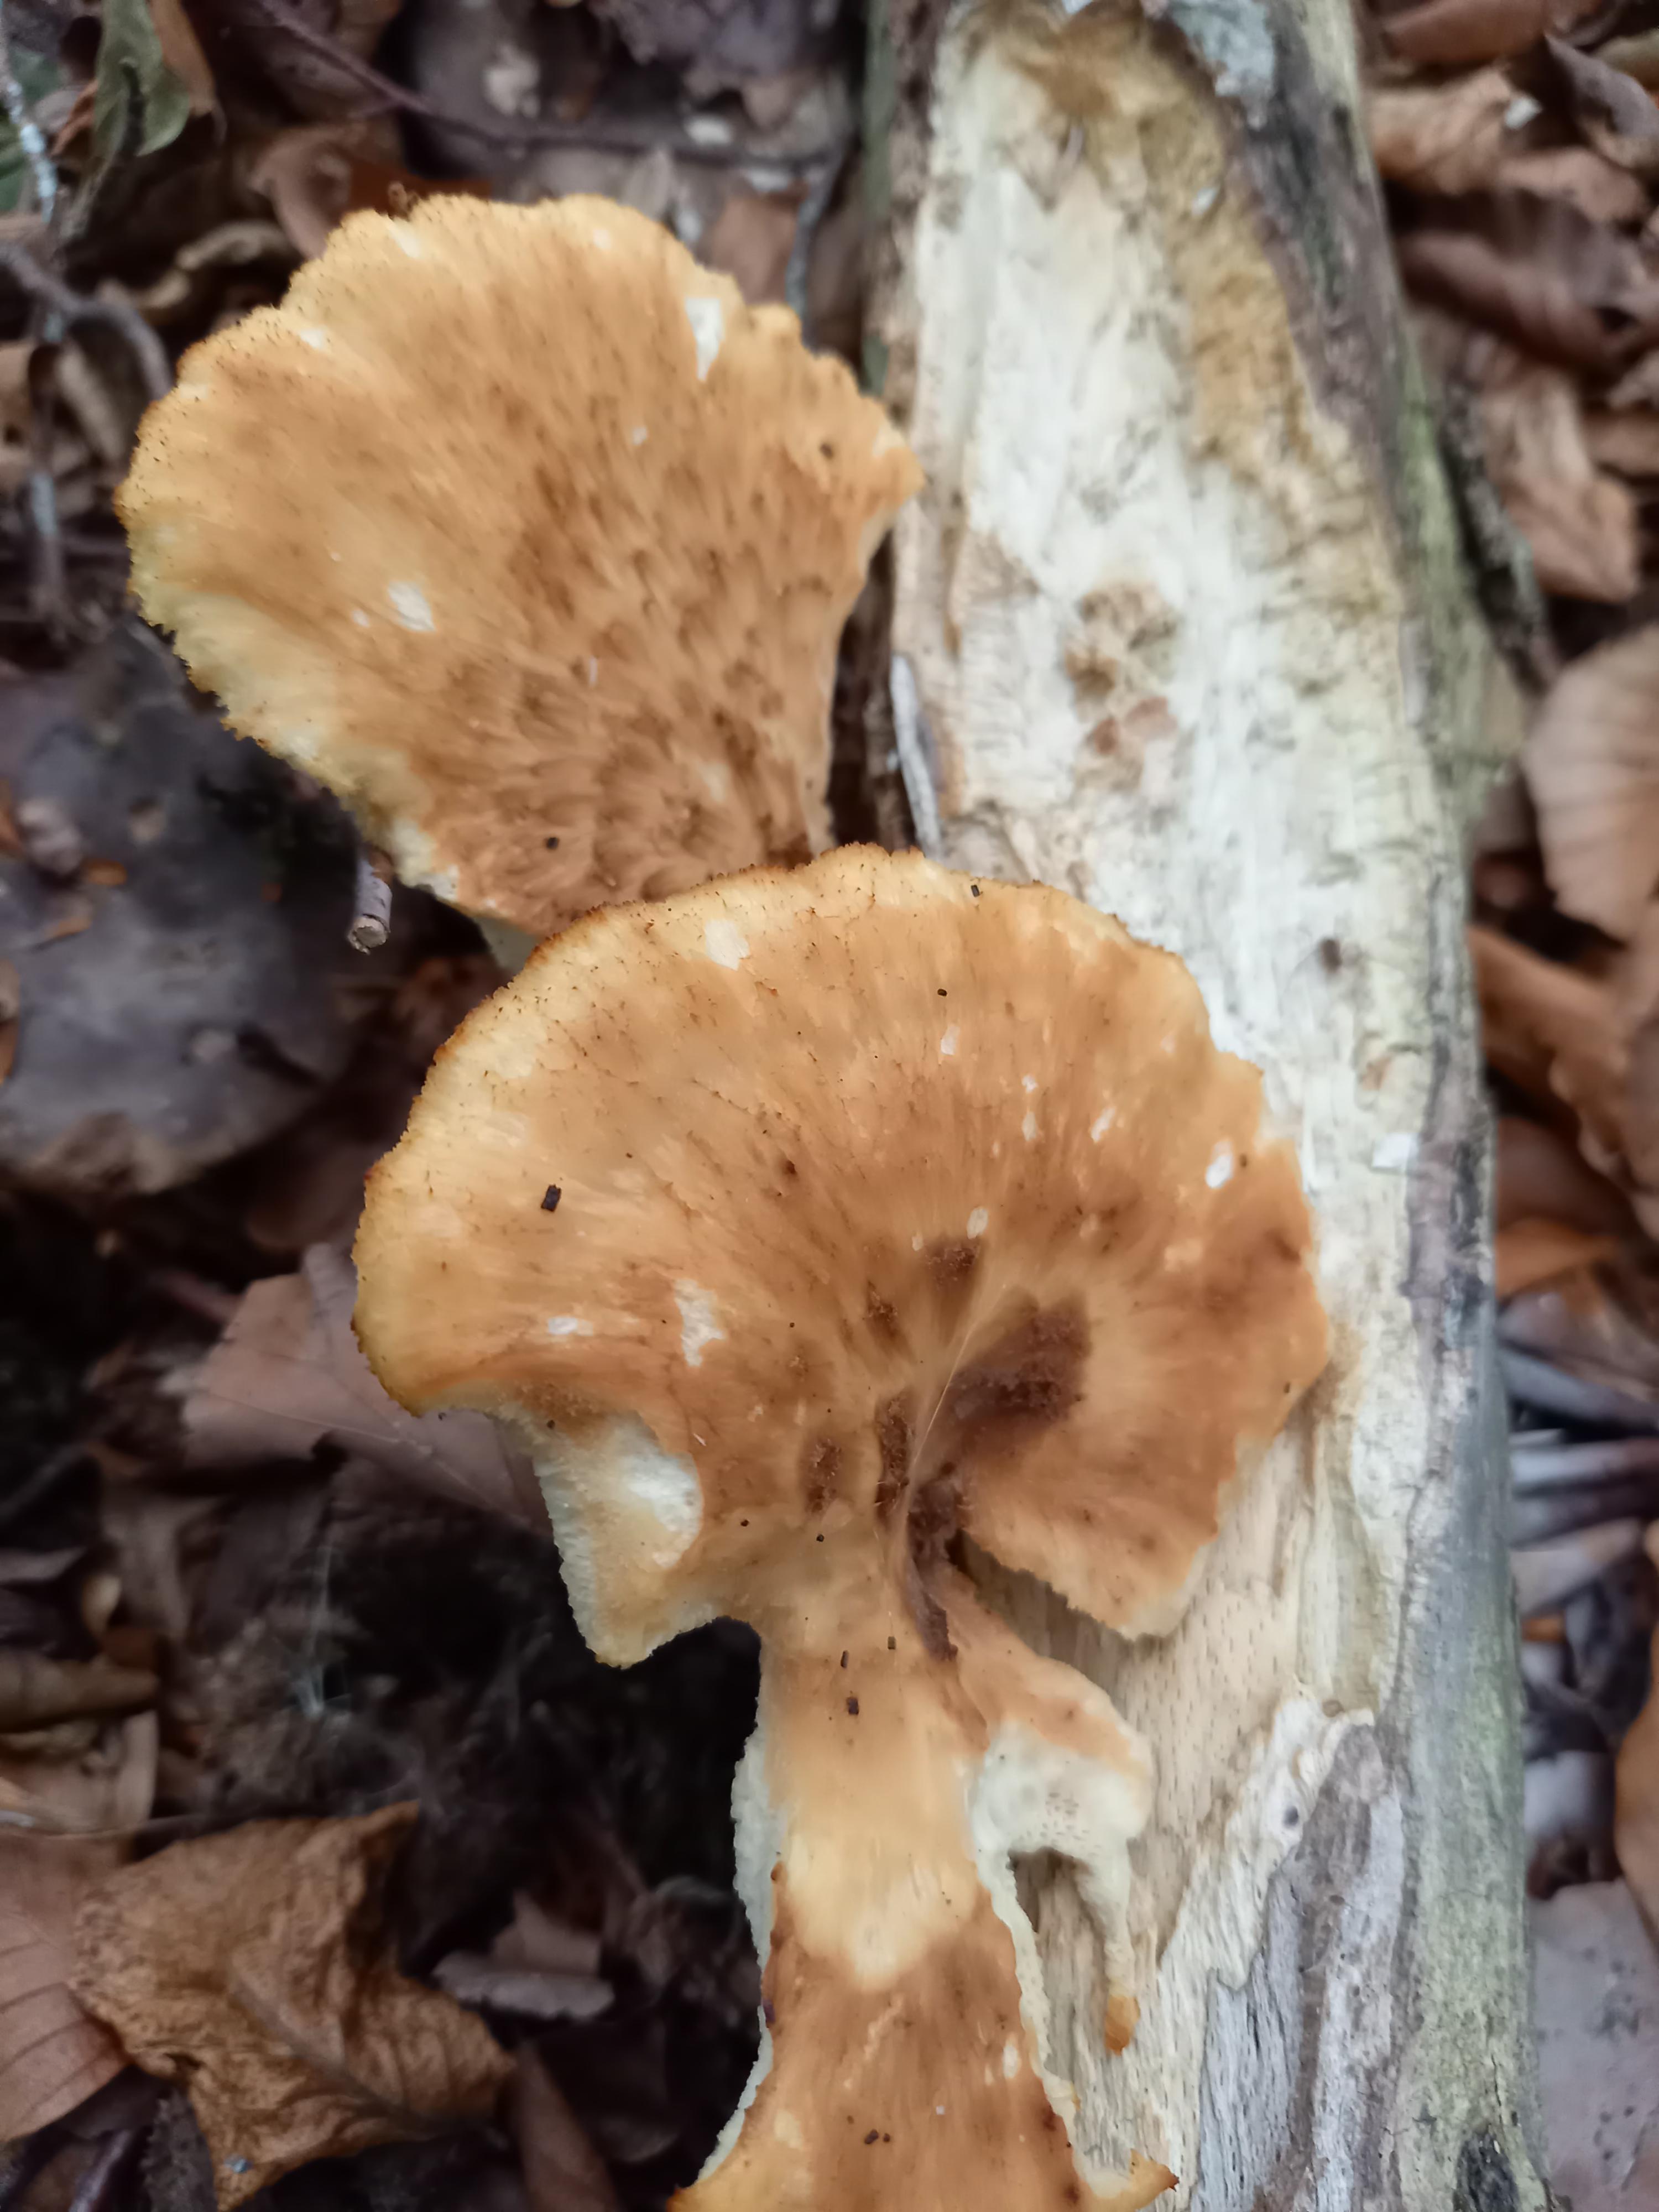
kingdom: Fungi
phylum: Basidiomycota
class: Agaricomycetes
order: Polyporales
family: Polyporaceae
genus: Polyporus
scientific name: Polyporus tuberaster
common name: knoldet stilkporesvamp
